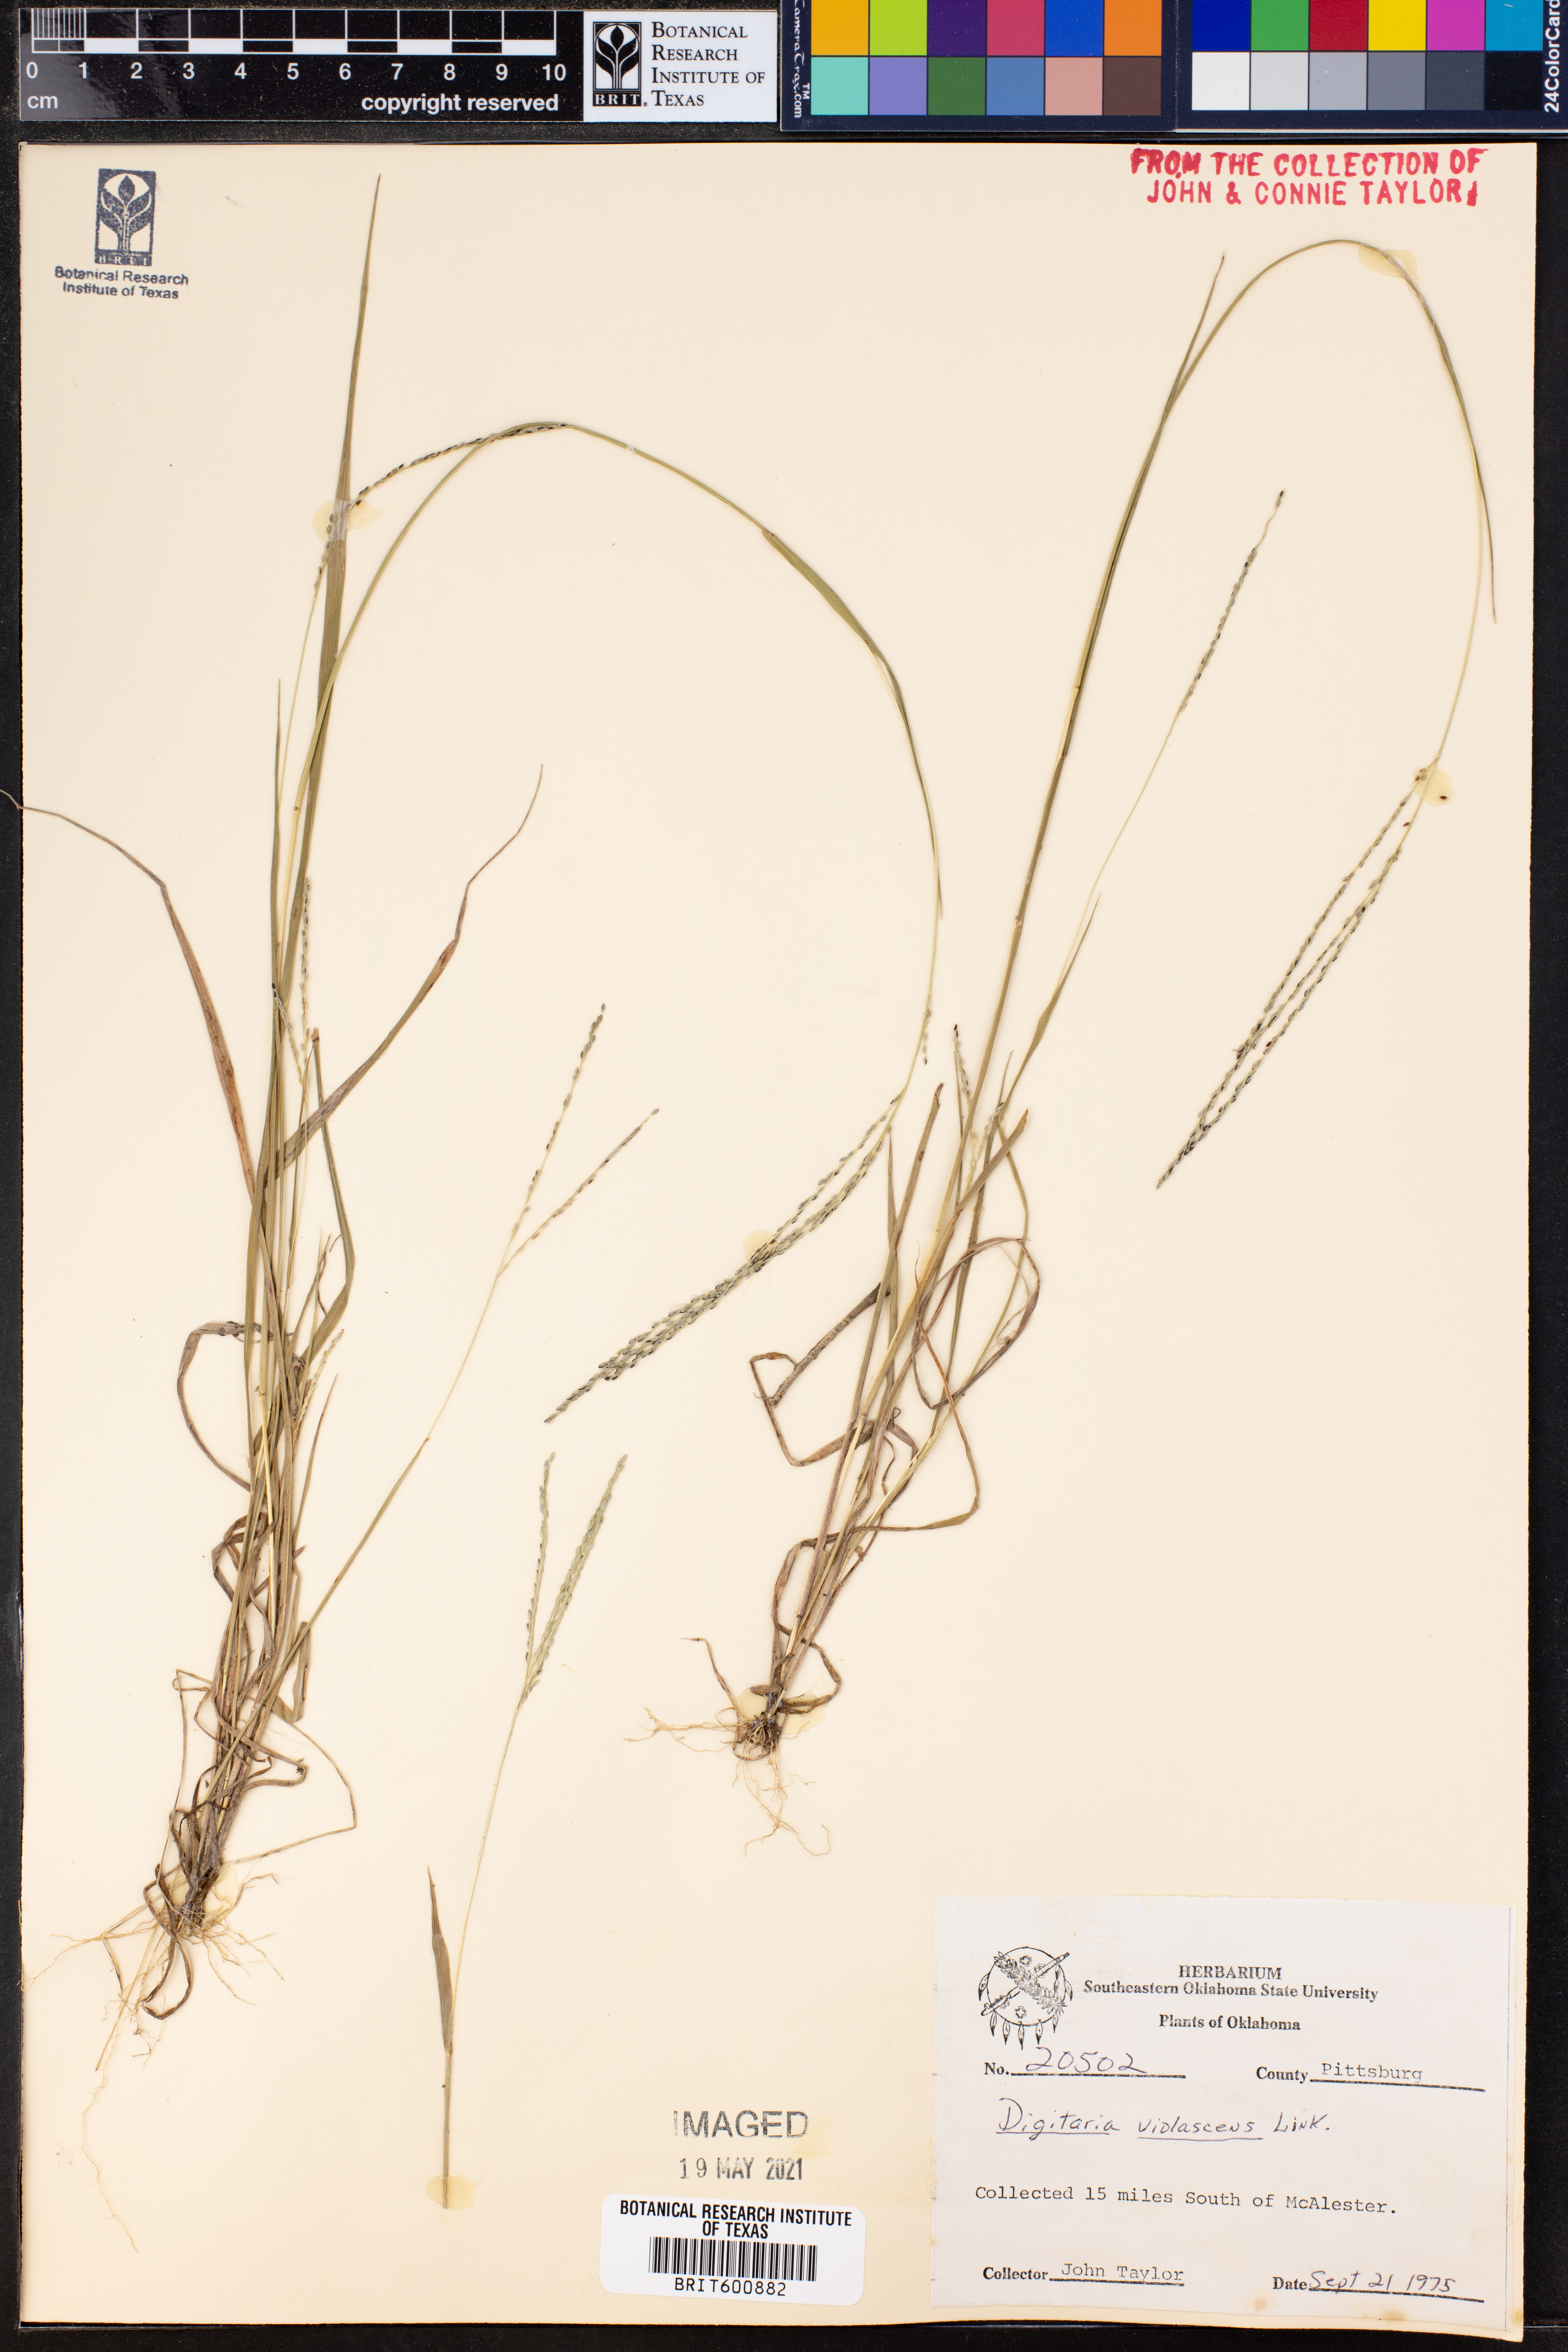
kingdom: Plantae
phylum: Tracheophyta
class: Liliopsida
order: Poales
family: Poaceae
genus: Digitaria
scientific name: Digitaria violascens
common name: Violet crabgrass
